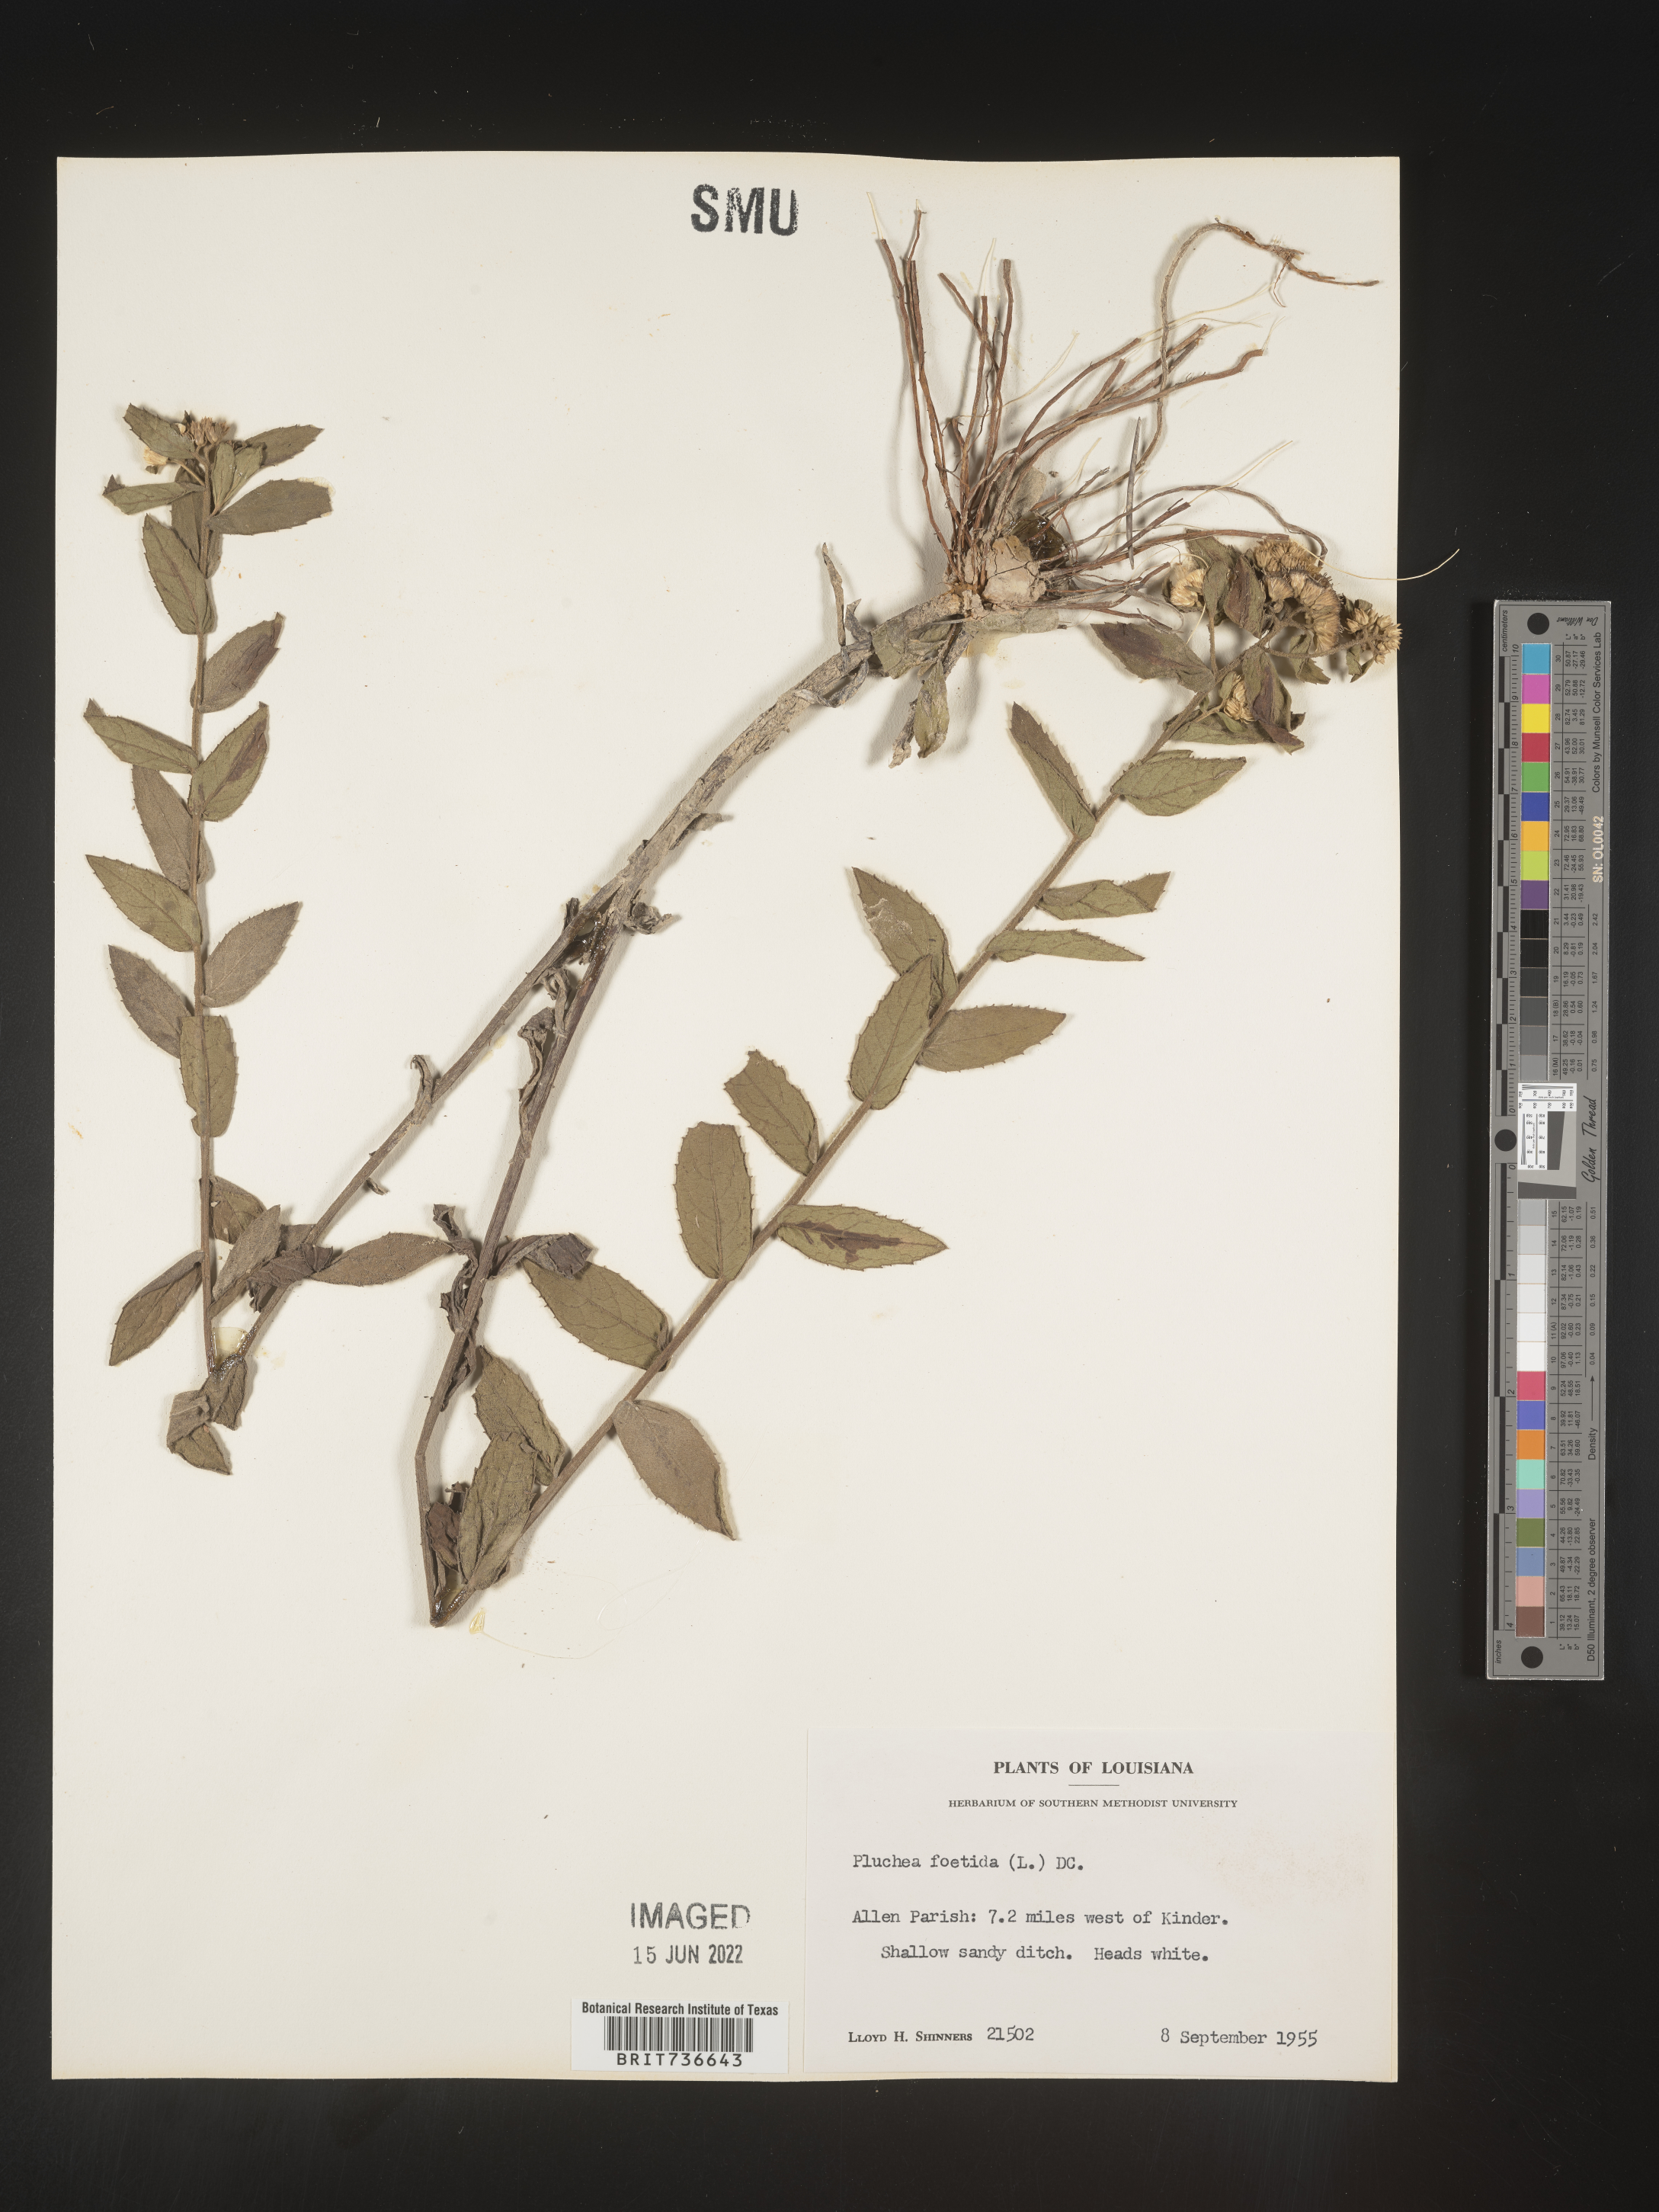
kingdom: Plantae
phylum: Tracheophyta
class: Magnoliopsida
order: Asterales
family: Asteraceae
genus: Pluchea
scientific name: Pluchea foetida
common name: Stinking camphorweed
